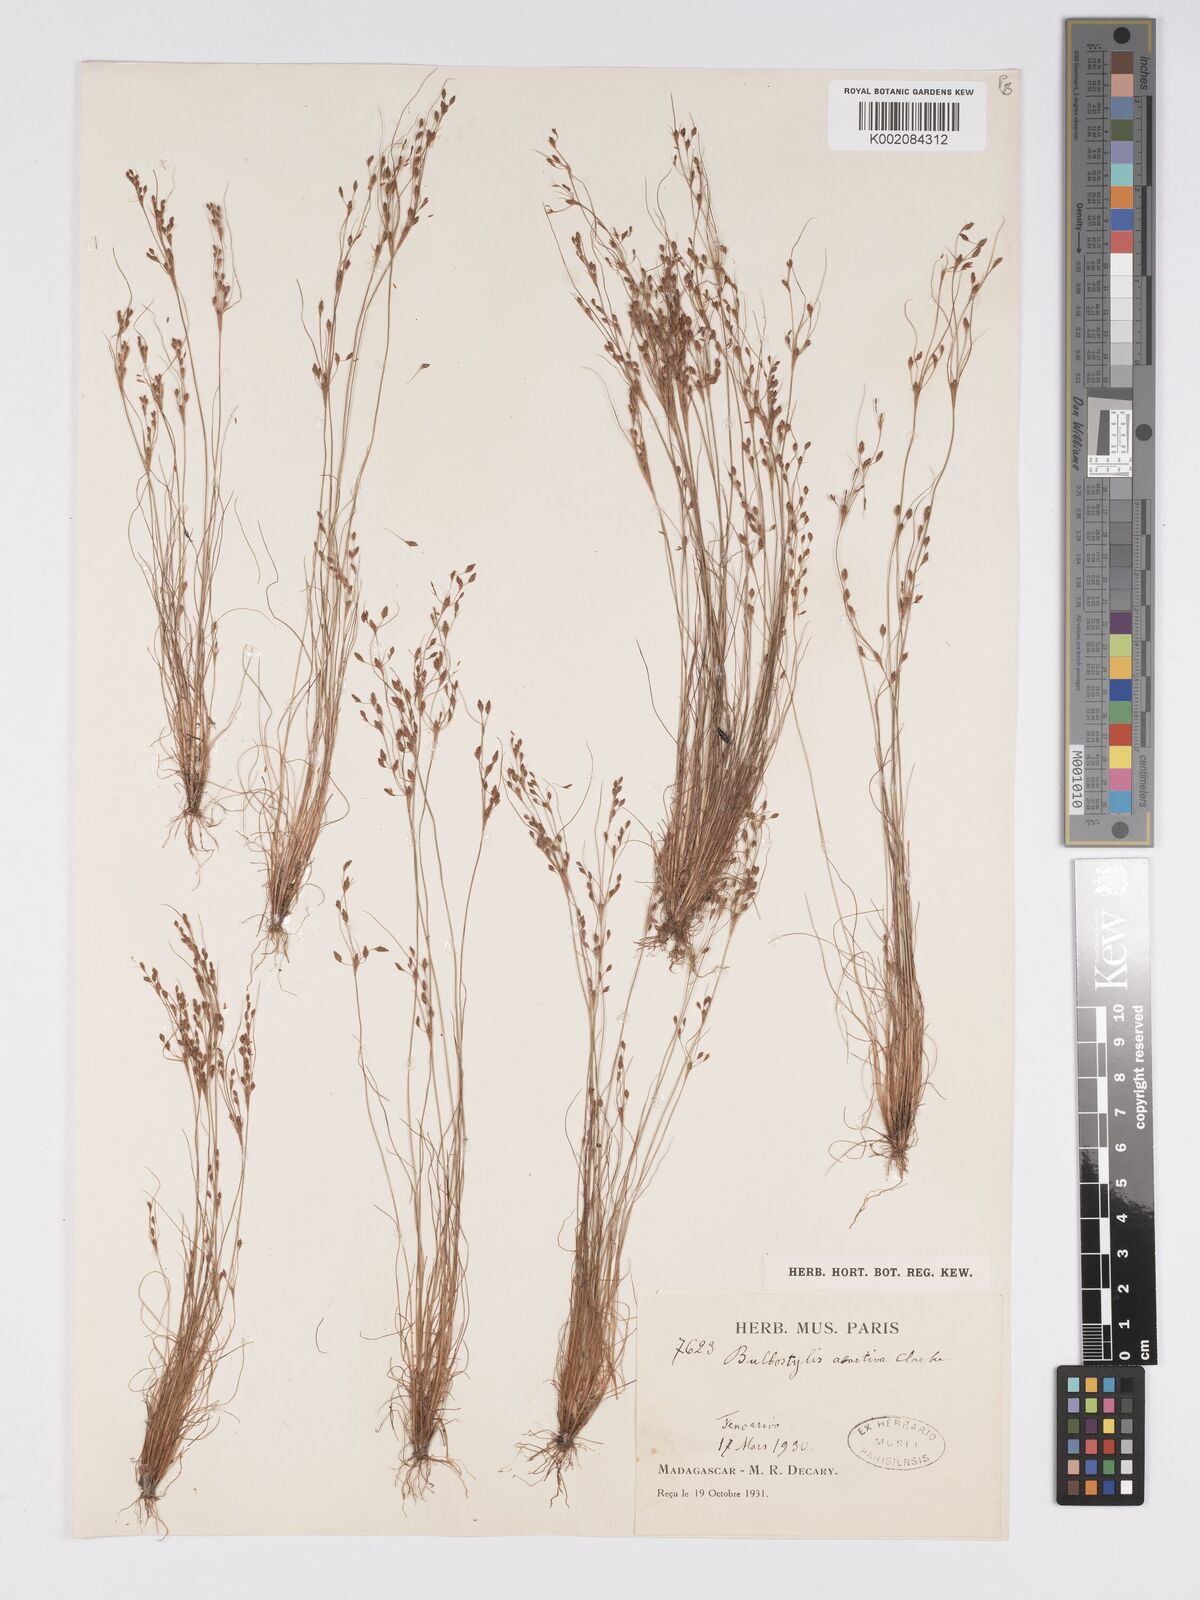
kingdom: Plantae
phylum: Tracheophyta
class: Liliopsida
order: Poales
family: Cyperaceae
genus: Bulbostylis
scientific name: Bulbostylis abortiva
